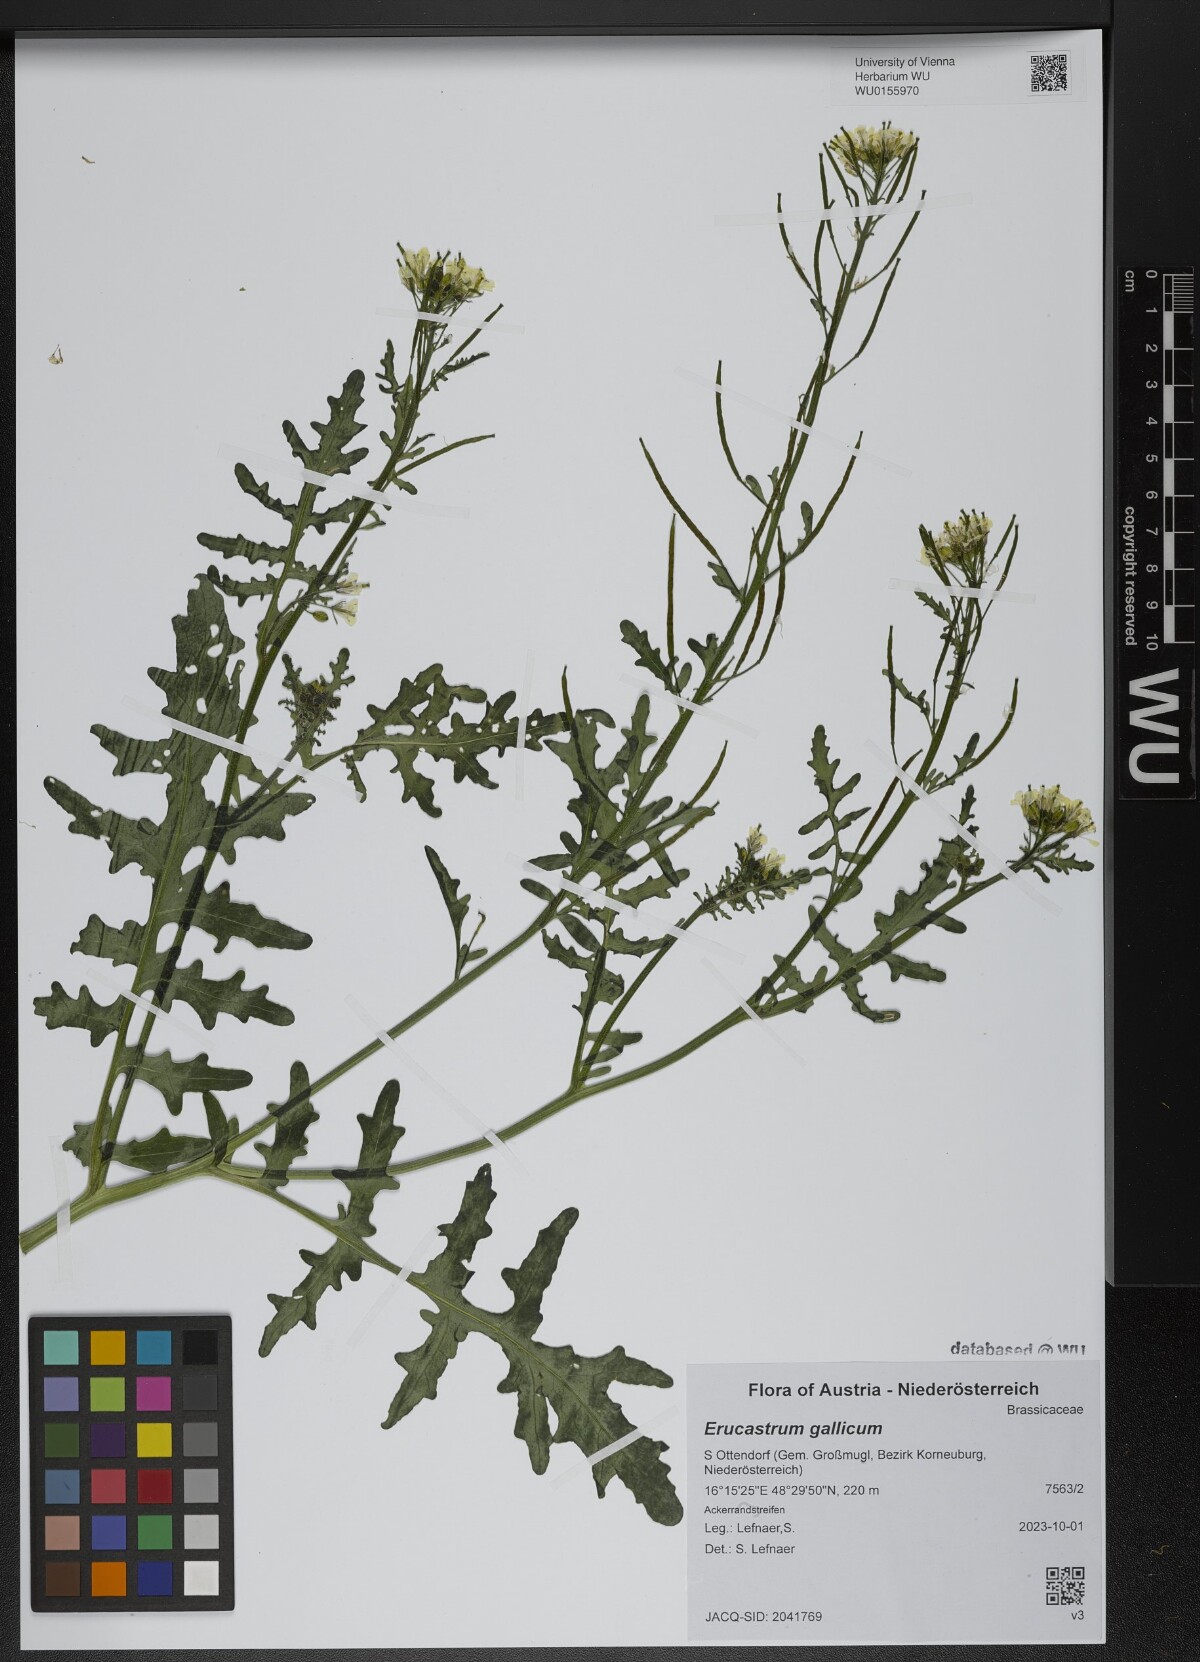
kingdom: Plantae
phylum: Tracheophyta
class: Magnoliopsida
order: Brassicales
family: Brassicaceae
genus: Erucastrum
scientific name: Erucastrum gallicum
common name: Hairy rocket
